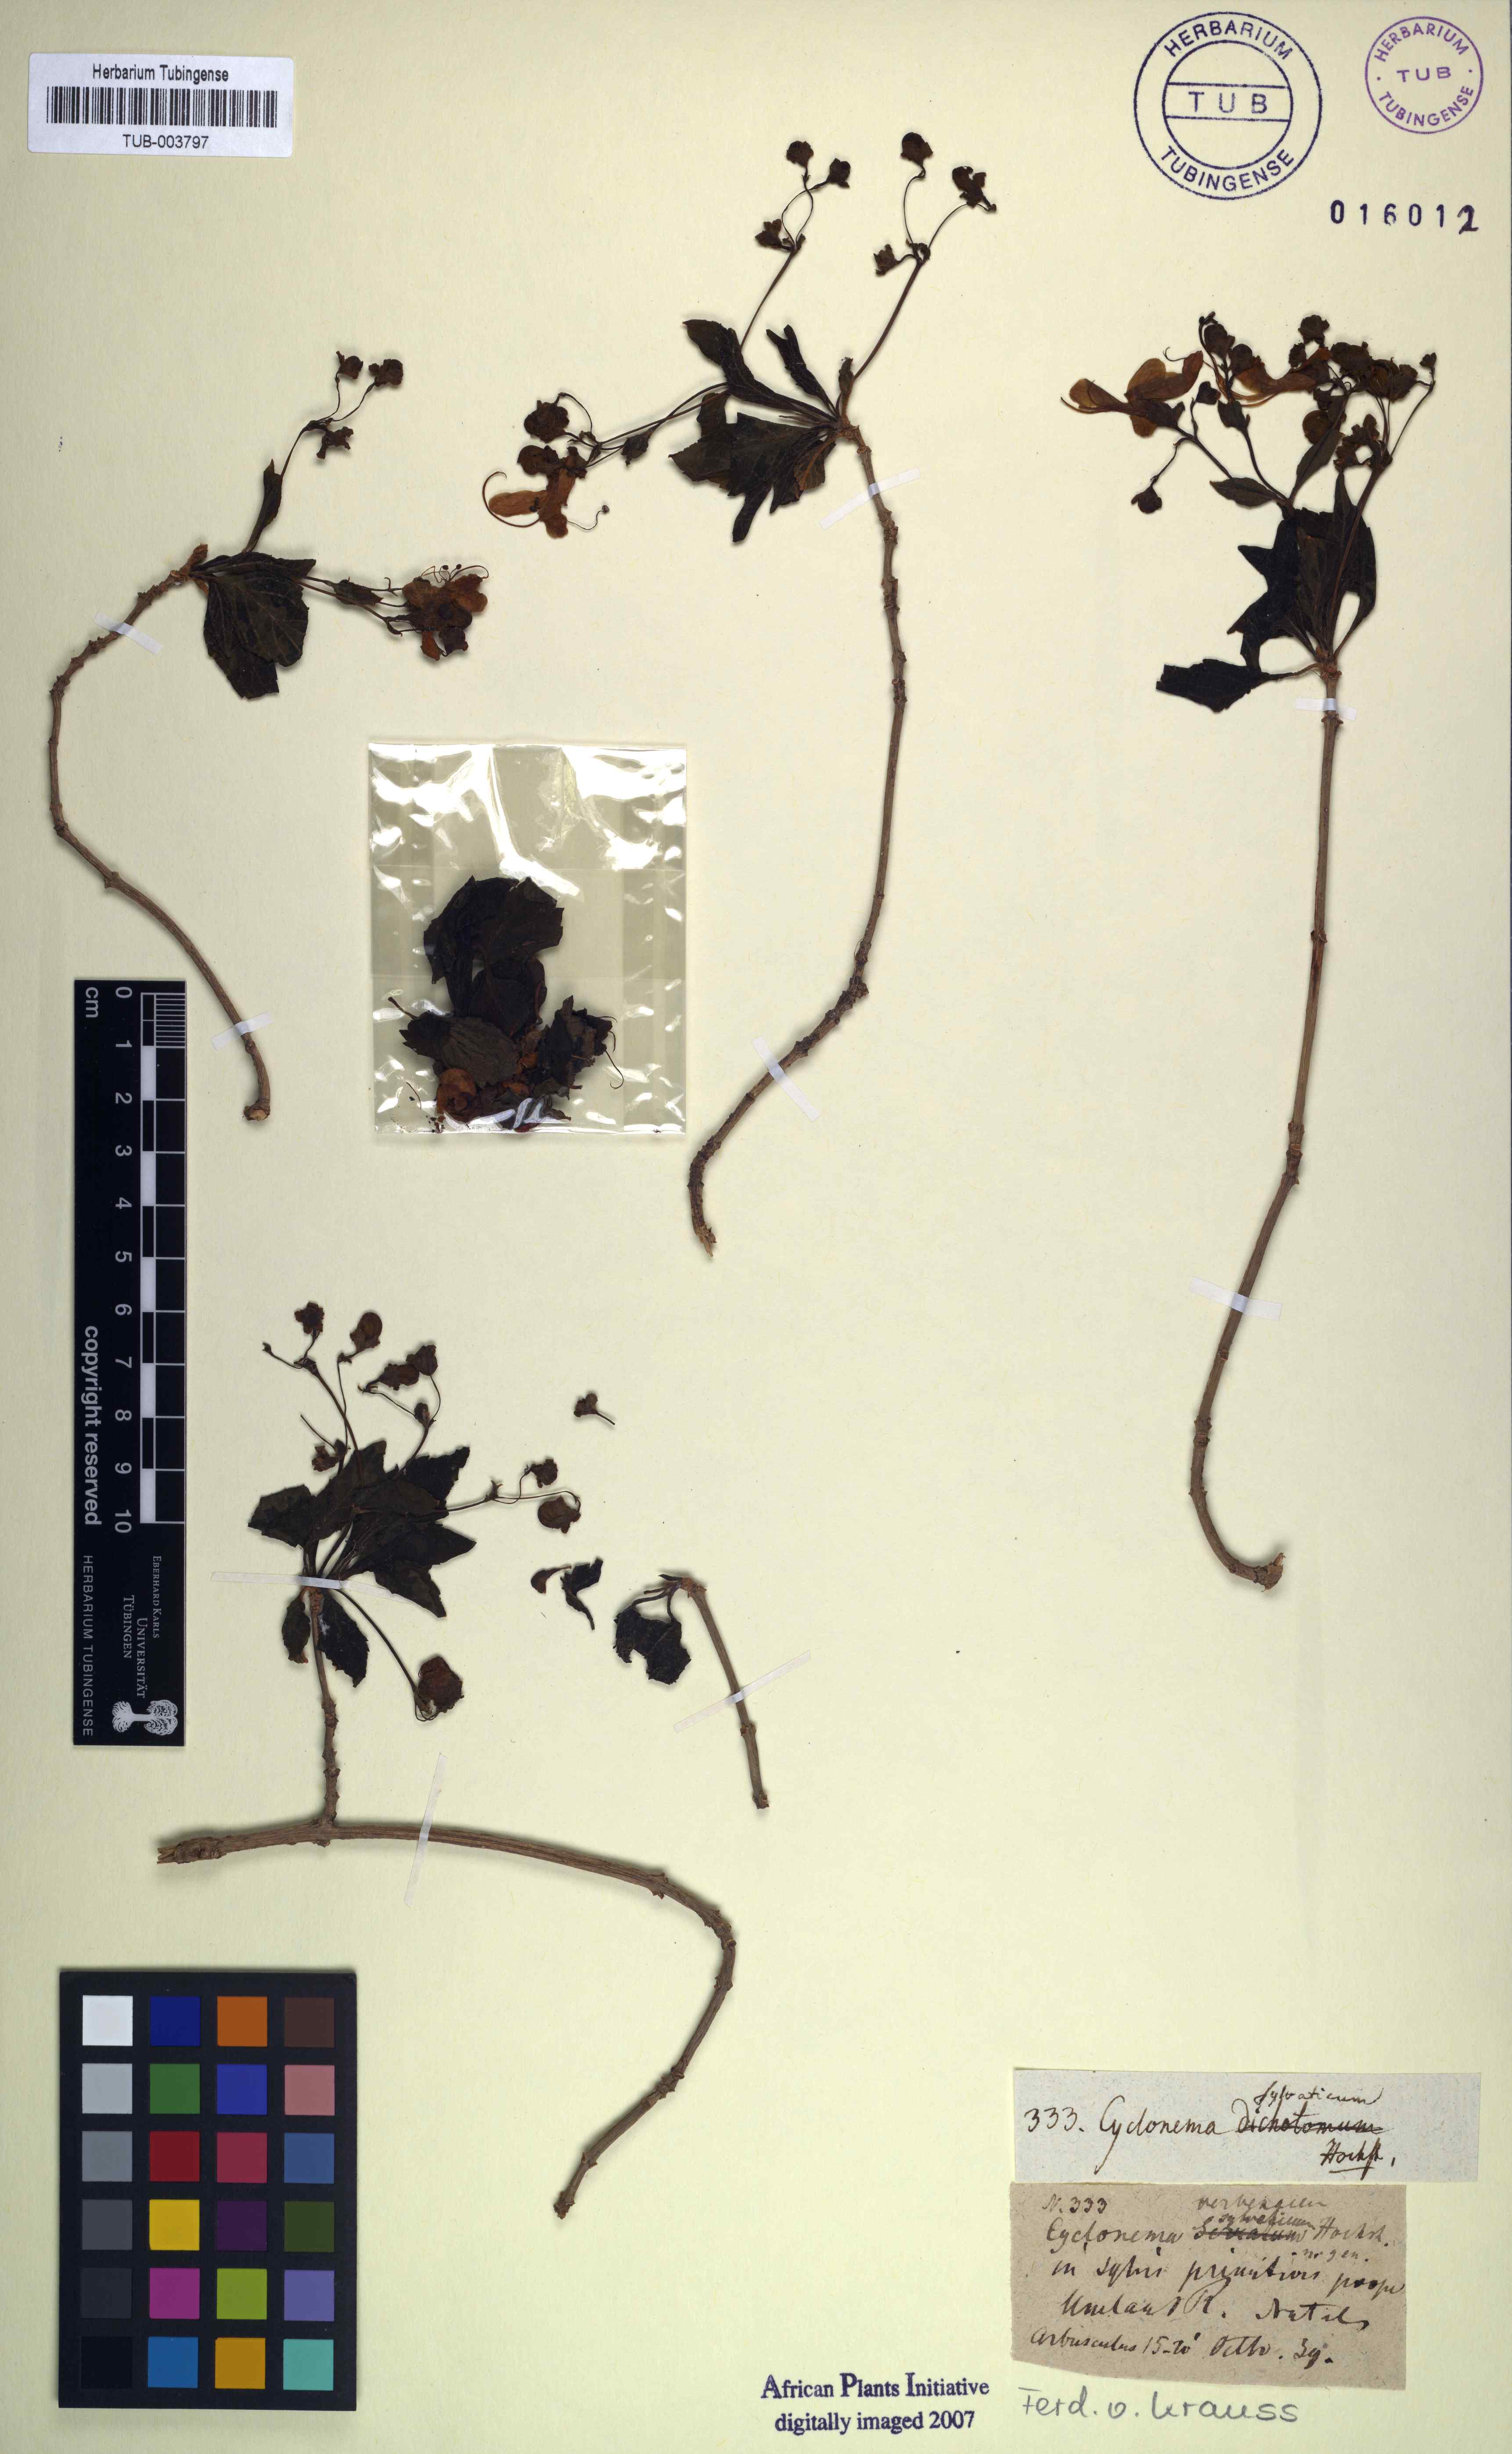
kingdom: Animalia
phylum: Mollusca
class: Gastropoda
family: Platyceratidae
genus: Cyclonema
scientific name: Cyclonema
